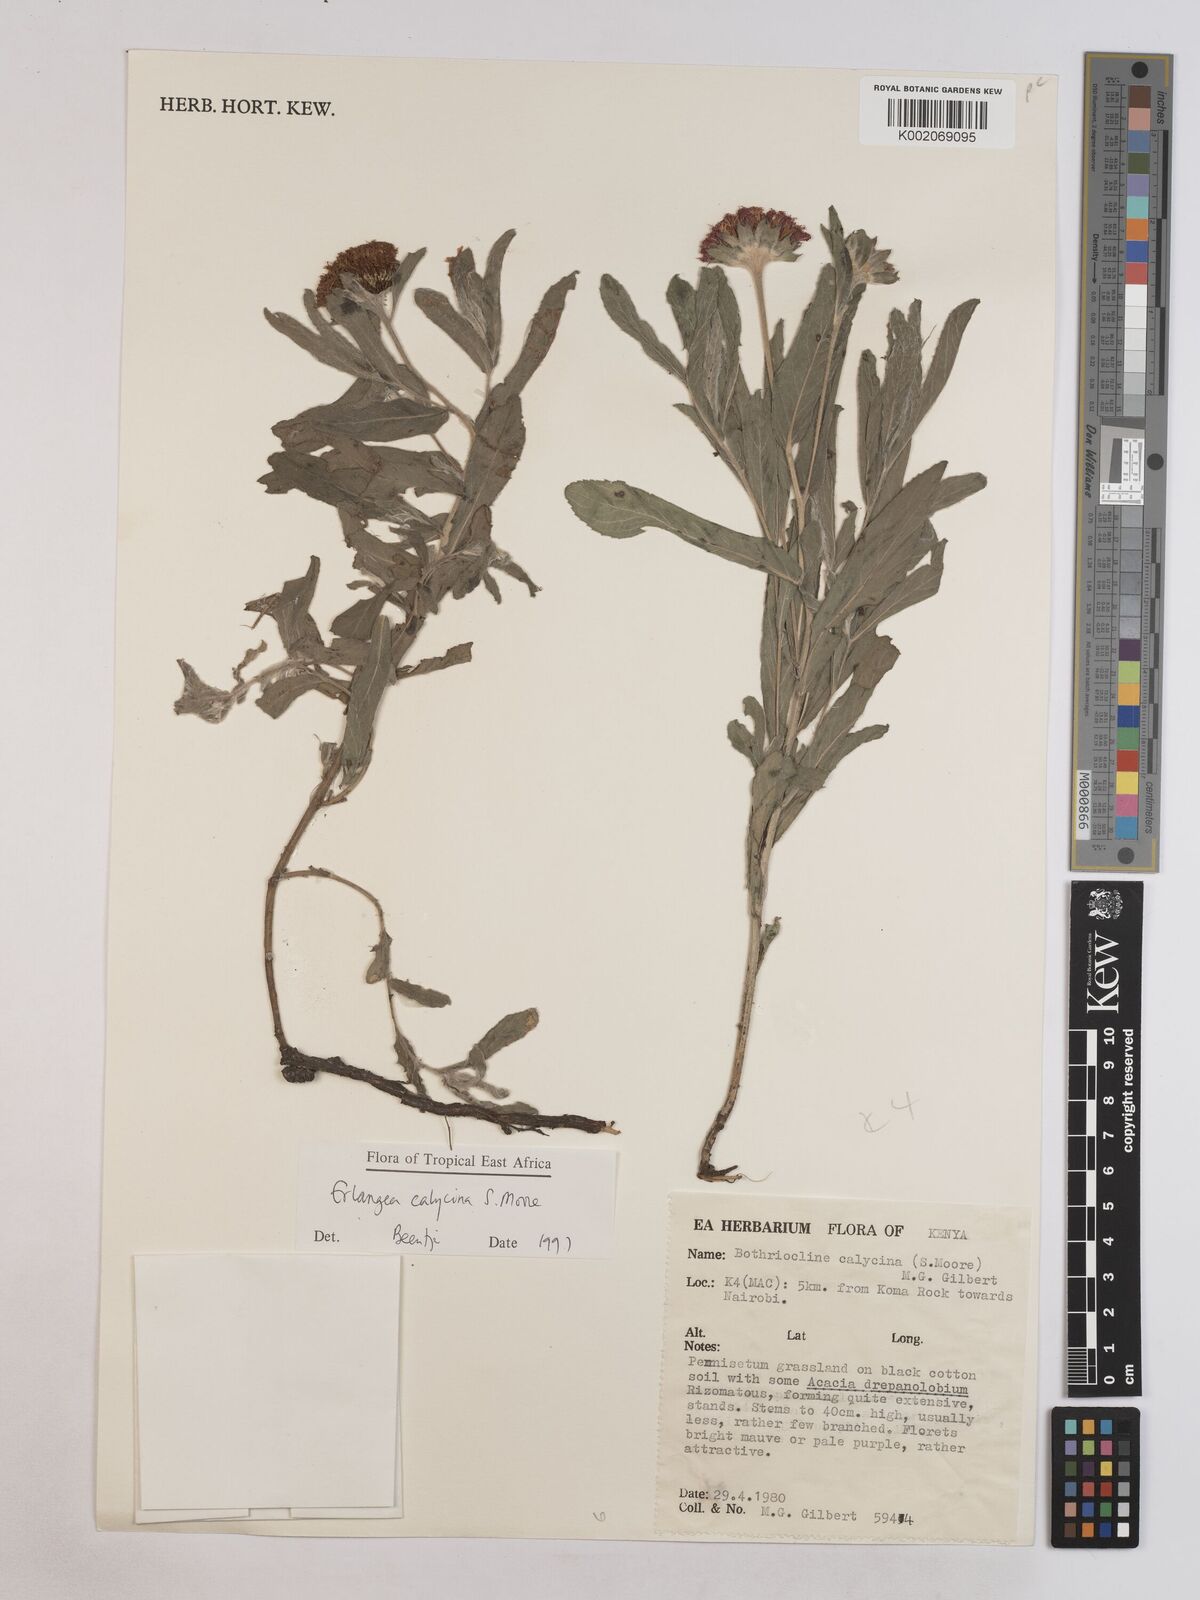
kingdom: Plantae
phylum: Tracheophyta
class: Magnoliopsida
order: Asterales
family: Asteraceae
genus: Erlangea
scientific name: Erlangea calycina
